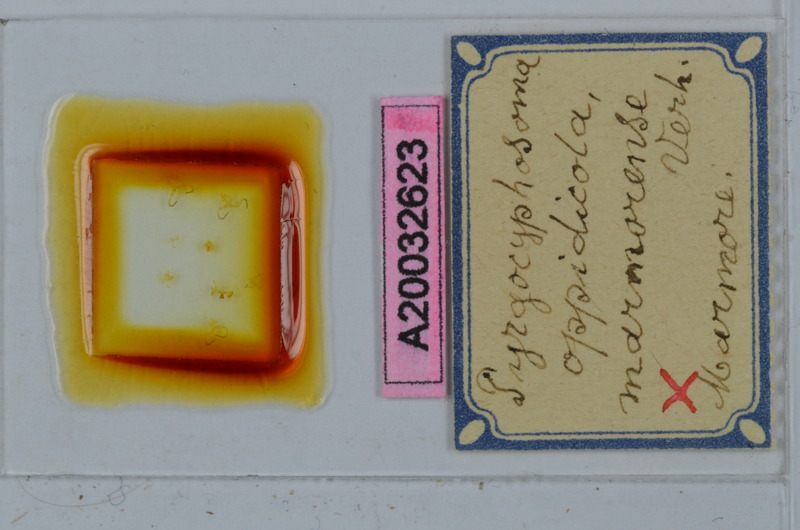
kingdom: Animalia
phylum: Arthropoda
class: Diplopoda
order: Chordeumatida
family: Craspedosomatidae
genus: Pyrgocyphosoma
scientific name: Pyrgocyphosoma marmorense
